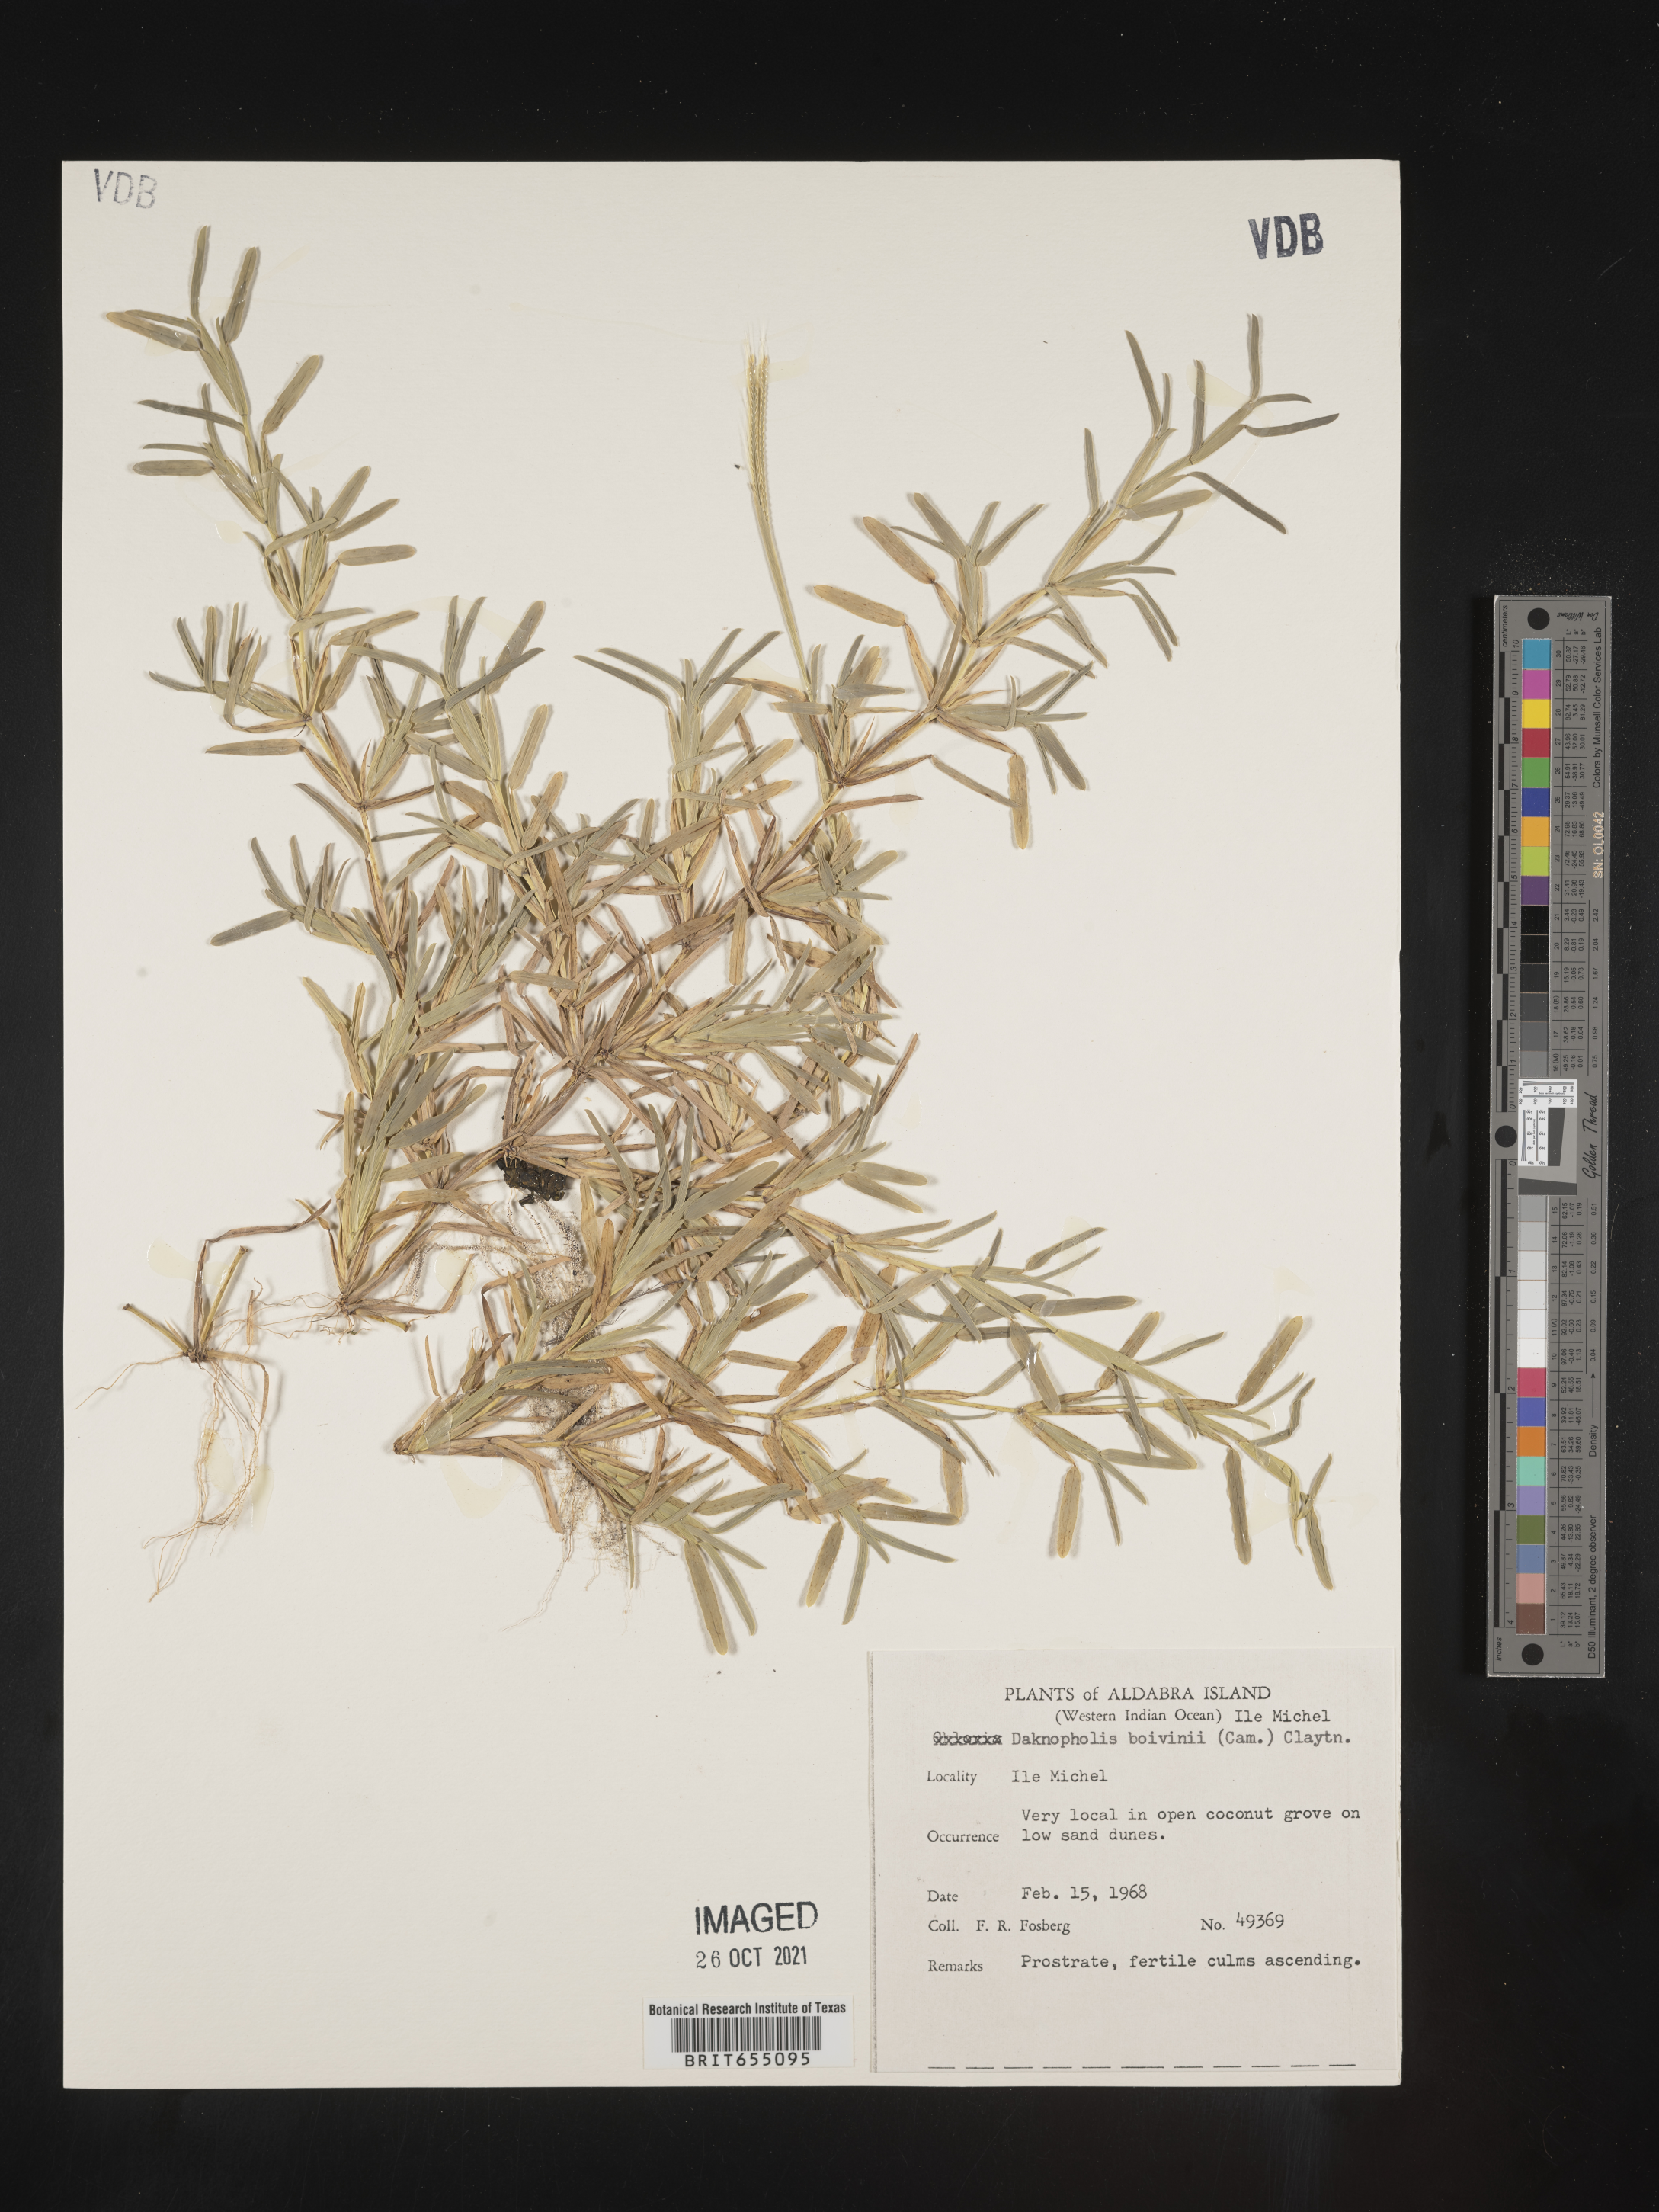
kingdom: Plantae
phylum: Tracheophyta
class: Liliopsida
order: Poales
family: Poaceae
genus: Daknopholis
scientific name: Daknopholis boivinii
